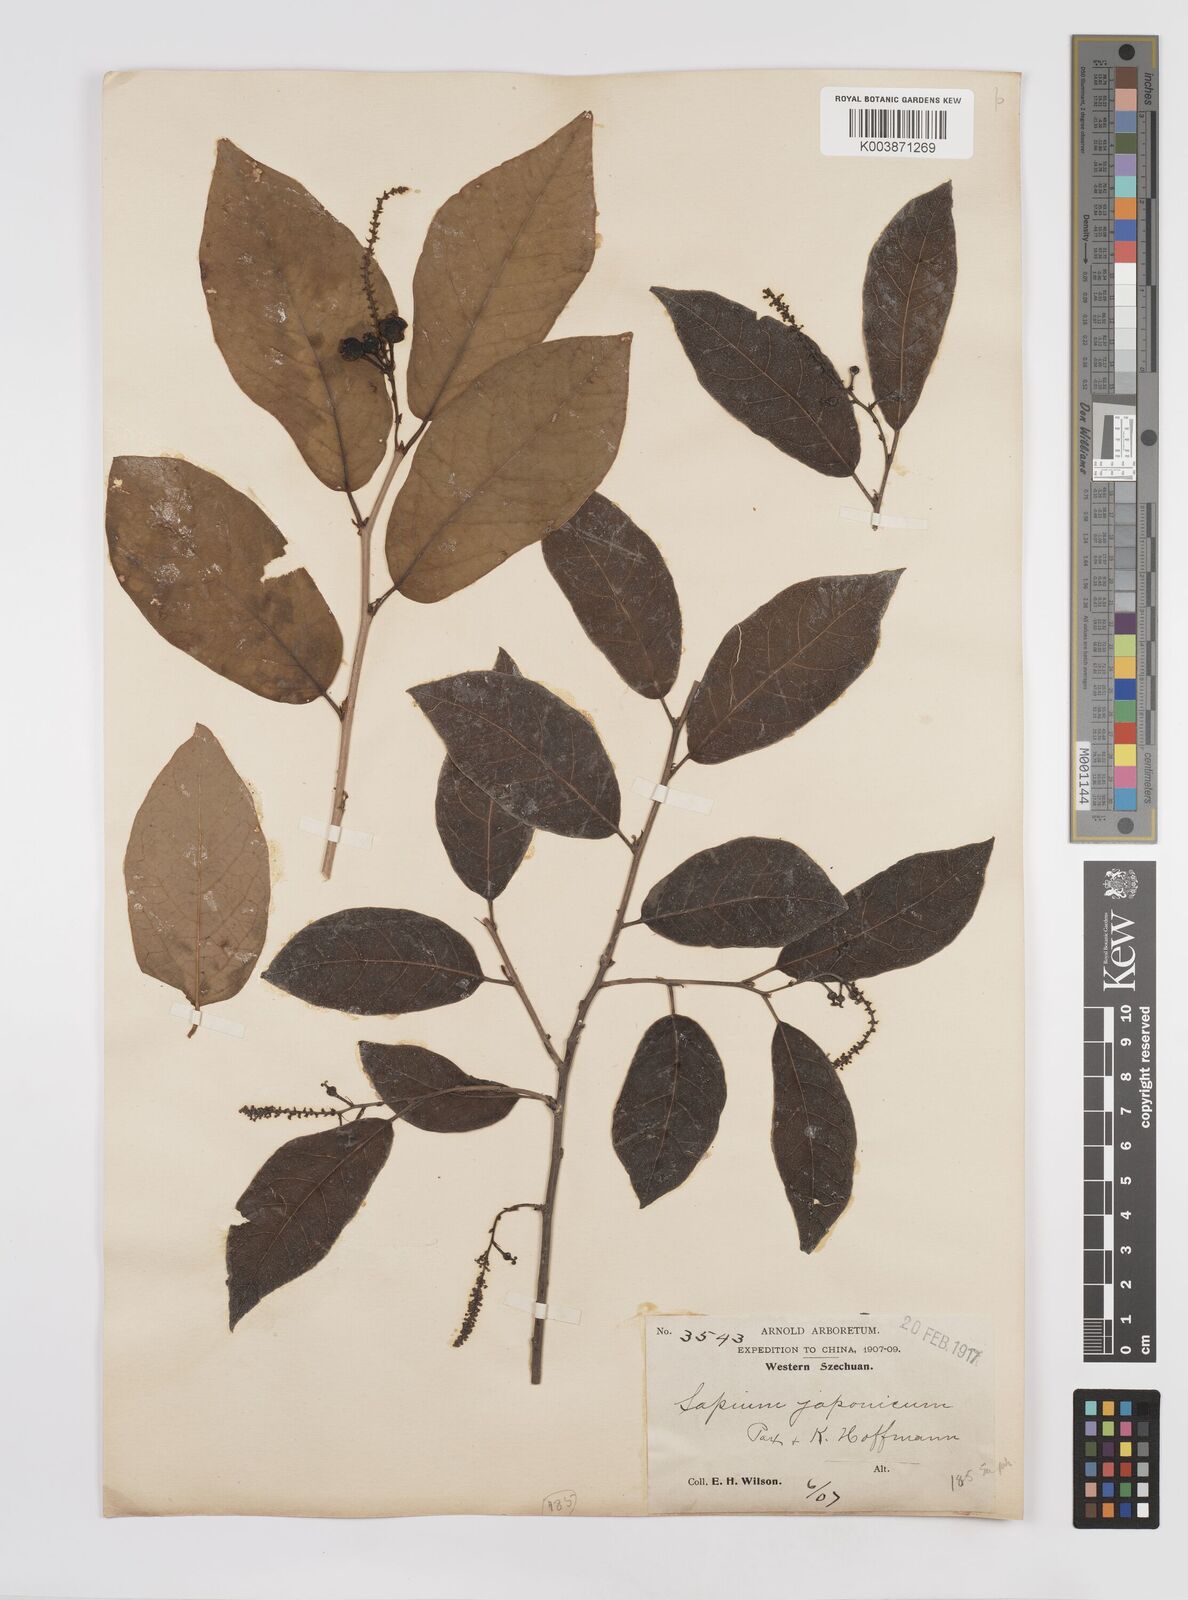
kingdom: Plantae
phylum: Tracheophyta
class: Magnoliopsida
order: Malpighiales
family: Euphorbiaceae
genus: Neoshirakia
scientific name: Neoshirakia japonica
